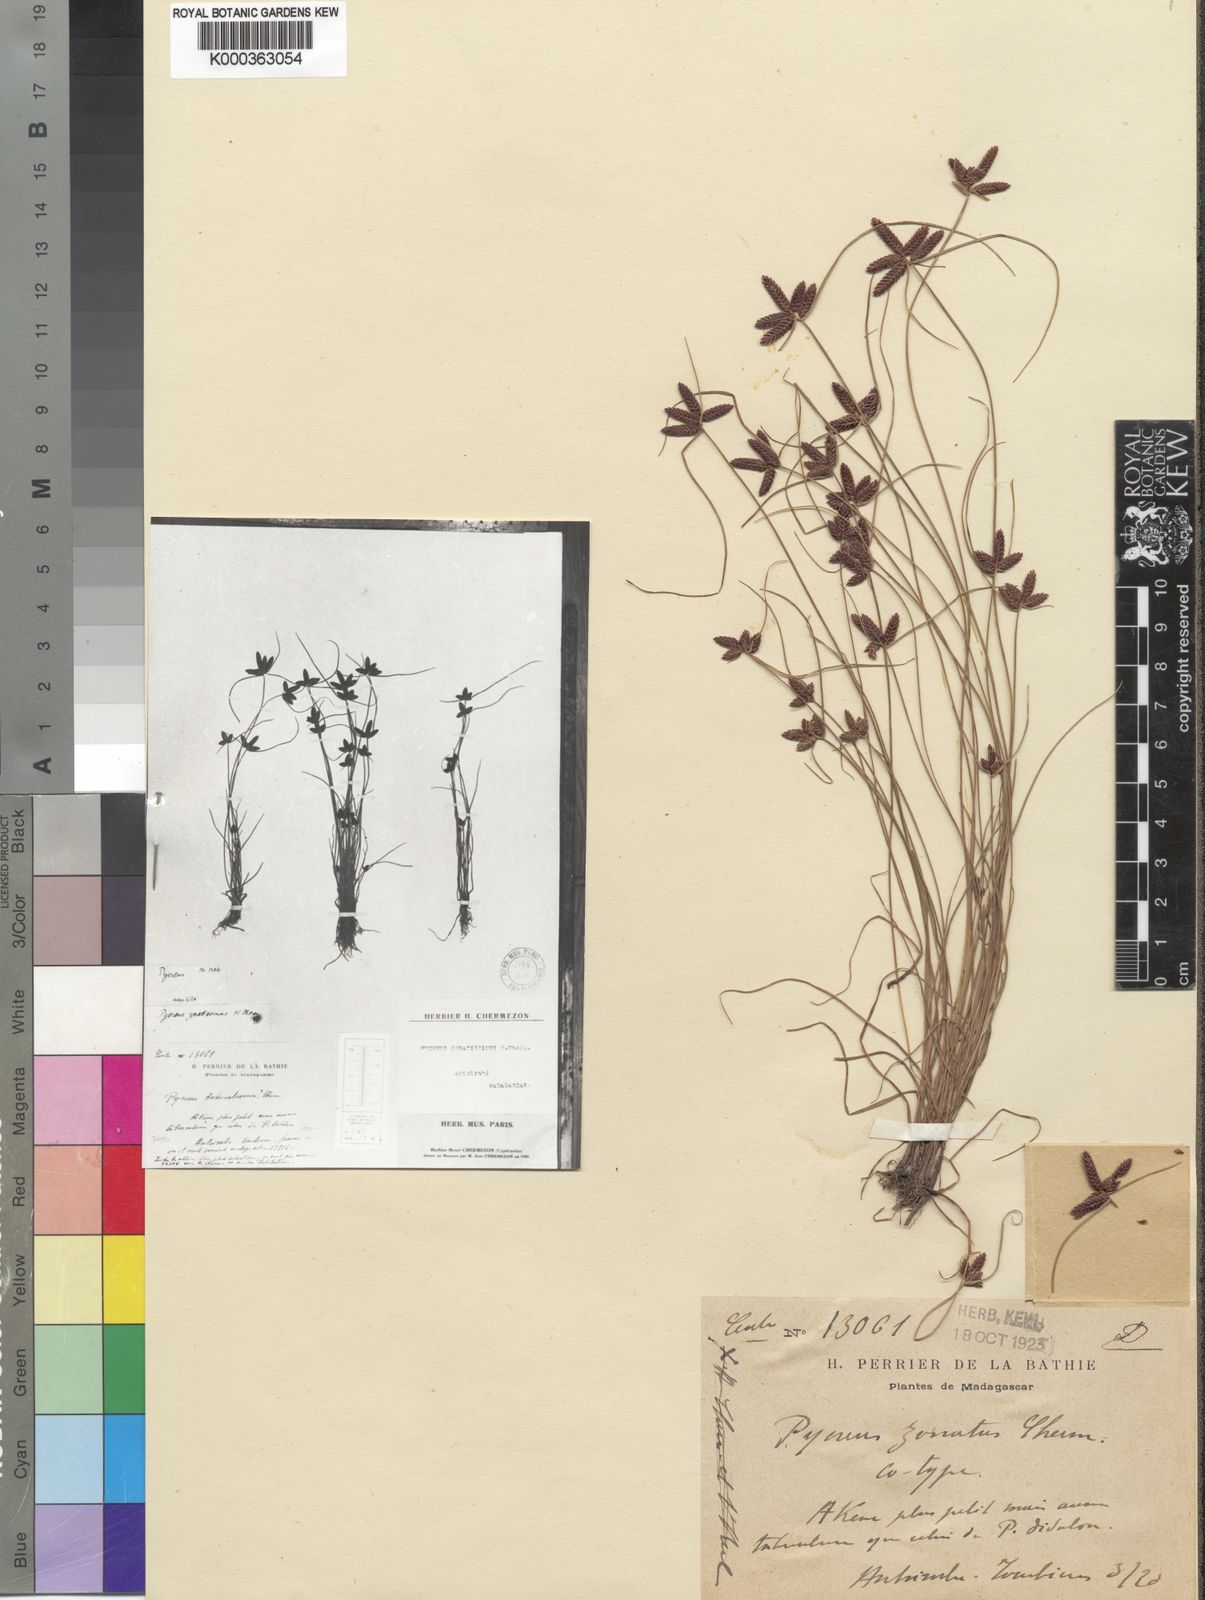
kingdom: Plantae
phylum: Tracheophyta
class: Liliopsida
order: Poales
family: Cyperaceae
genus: Cyperus
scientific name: Cyperus zonatissimus
